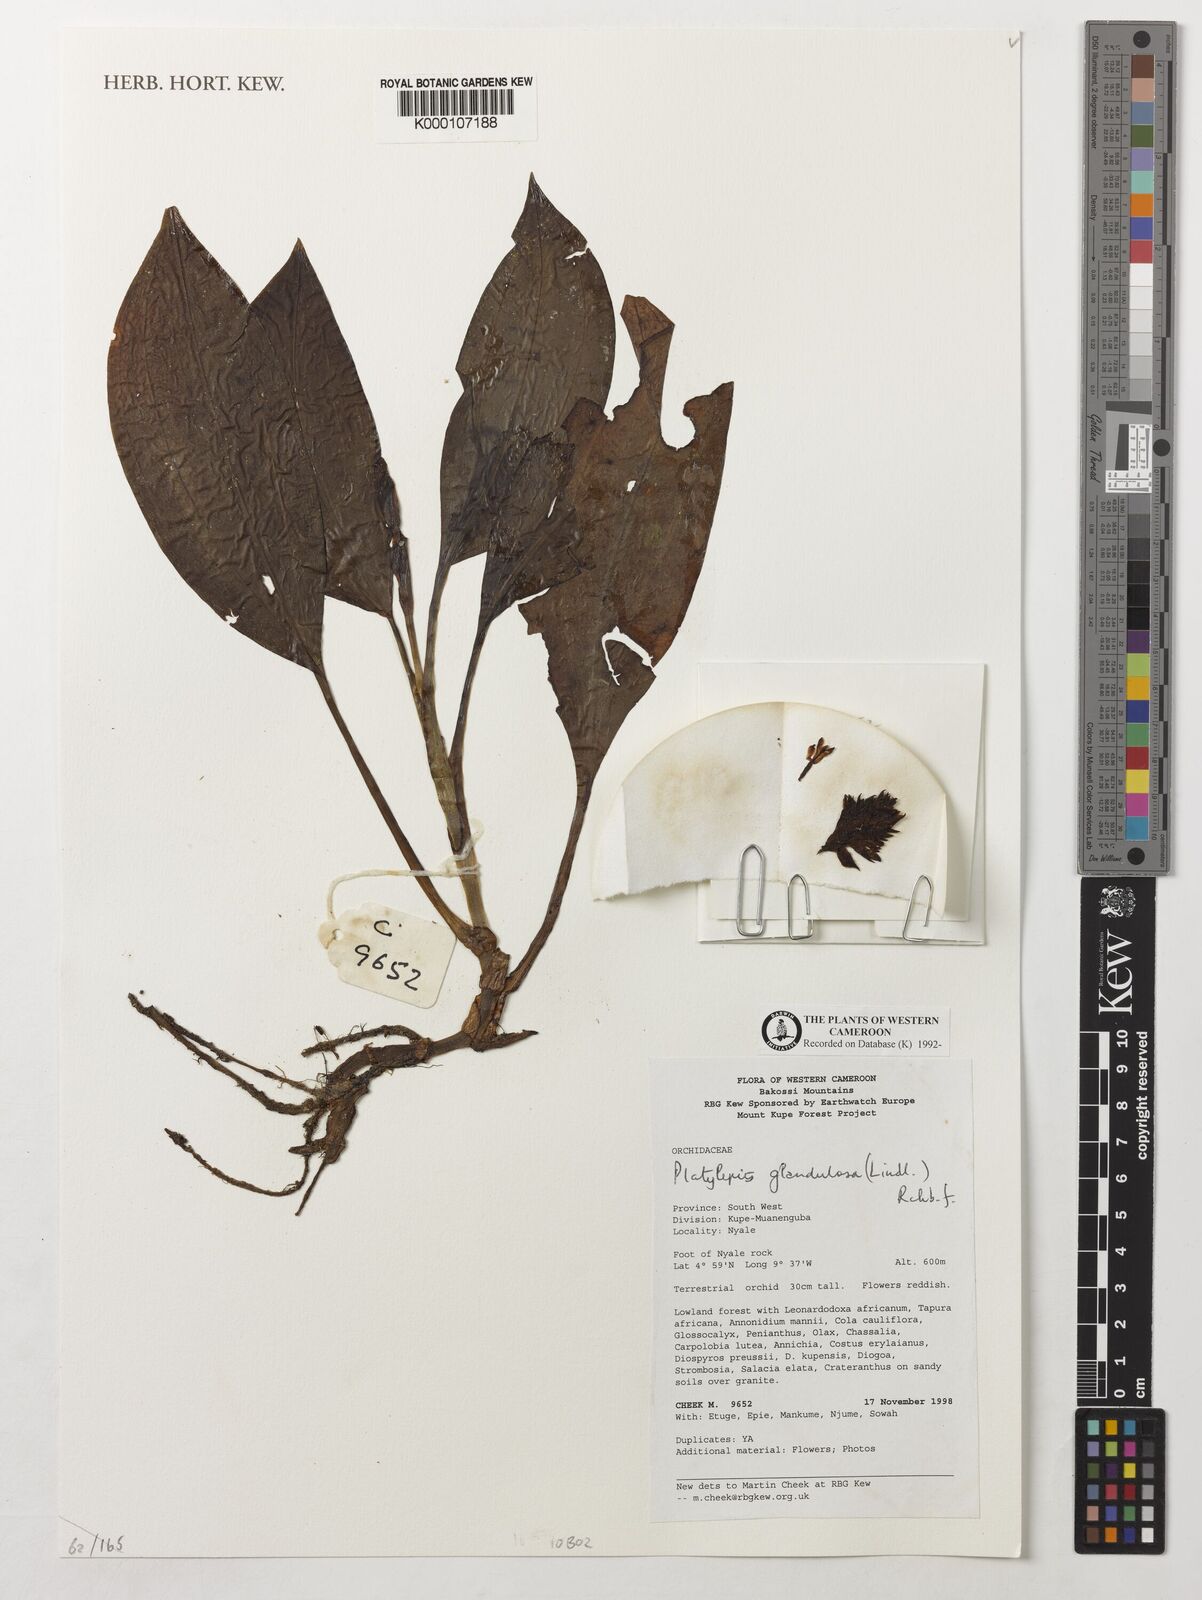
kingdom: Plantae
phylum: Tracheophyta
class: Liliopsida
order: Asparagales
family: Orchidaceae
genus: Platylepis
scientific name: Platylepis glandulosa
